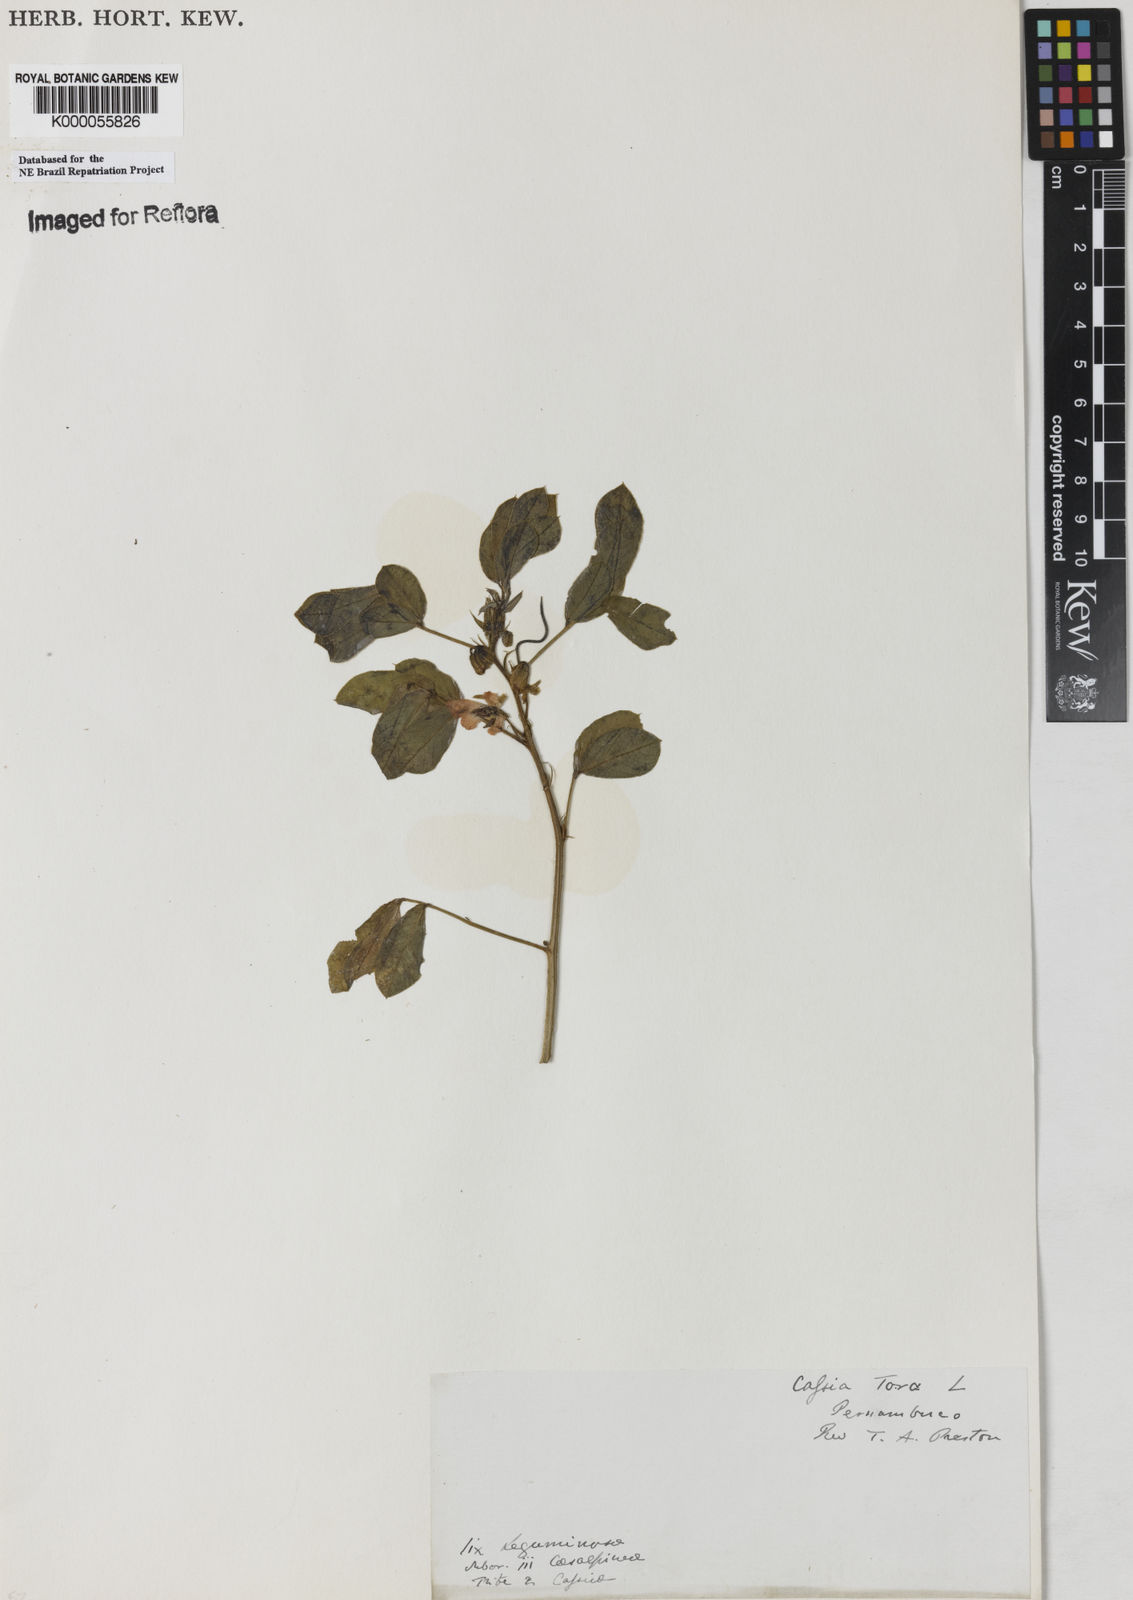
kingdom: Plantae
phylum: Tracheophyta
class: Magnoliopsida
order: Fabales
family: Fabaceae
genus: Senna
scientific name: Senna obtusifolia
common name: Java-bean
